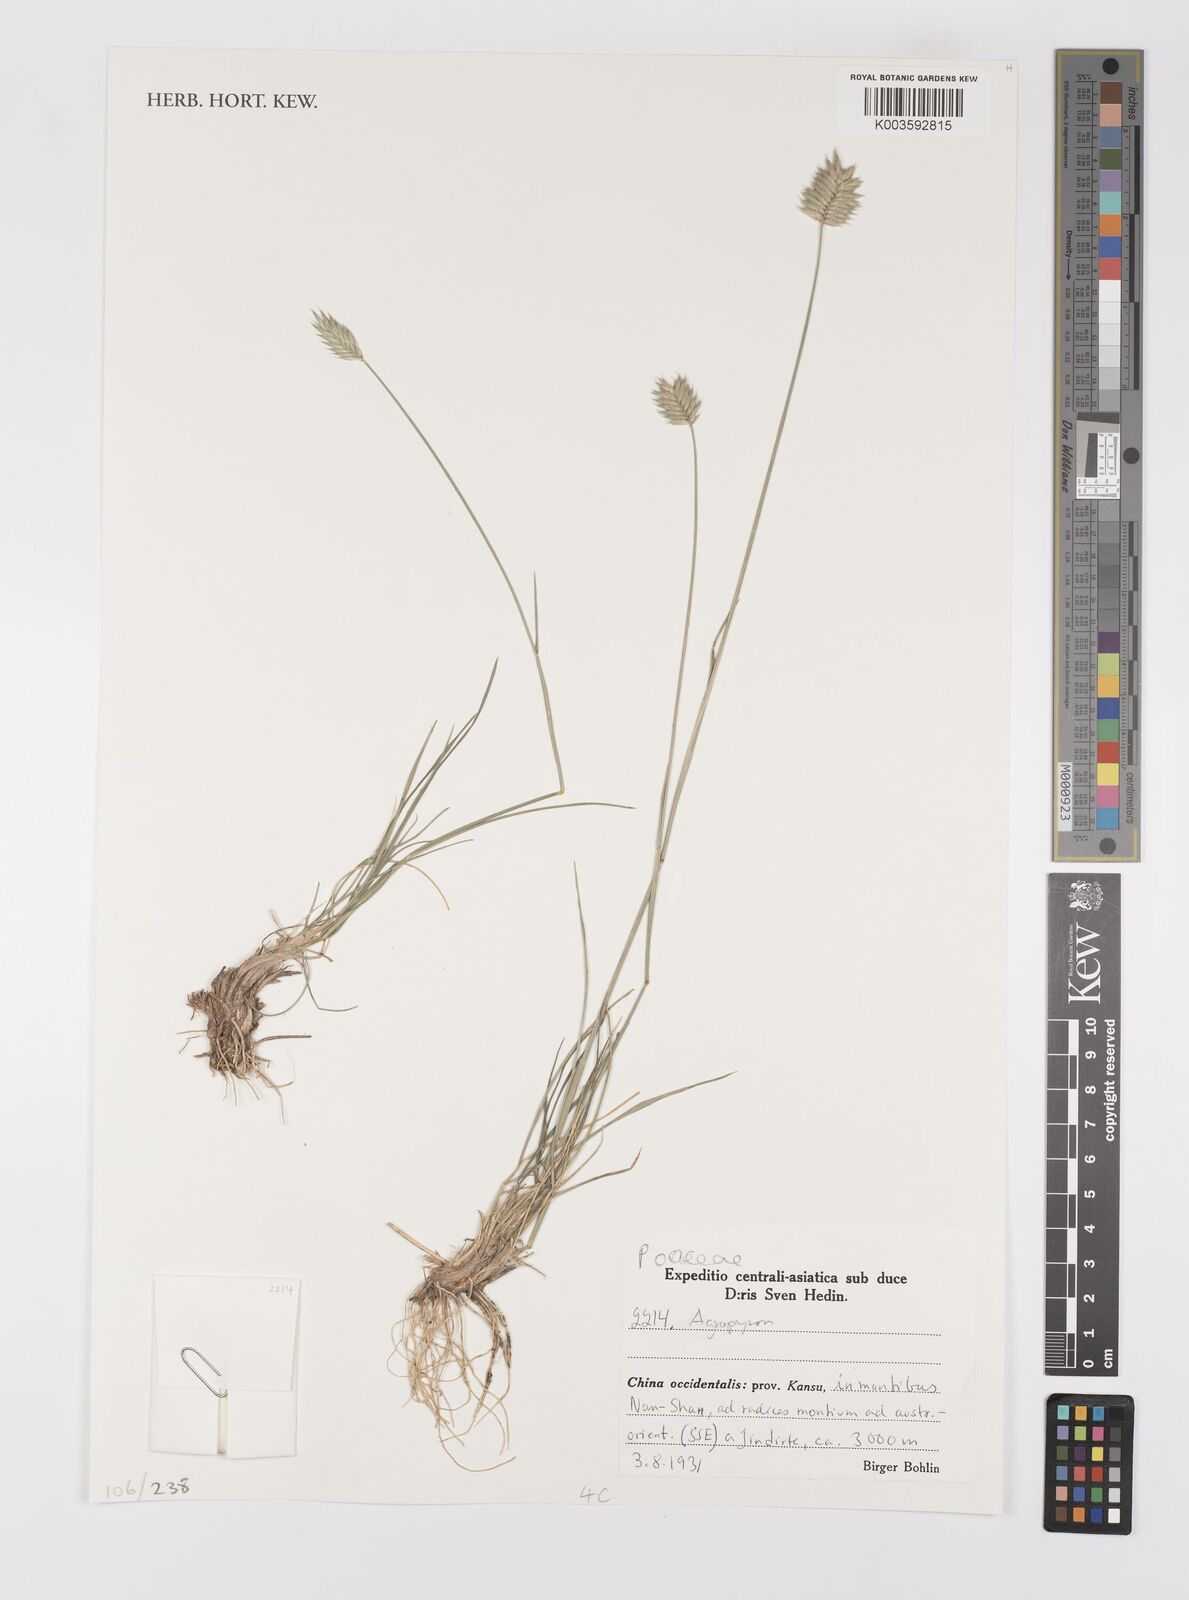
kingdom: Plantae
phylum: Tracheophyta
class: Liliopsida
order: Poales
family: Poaceae
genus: Agropyron
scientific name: Agropyron
